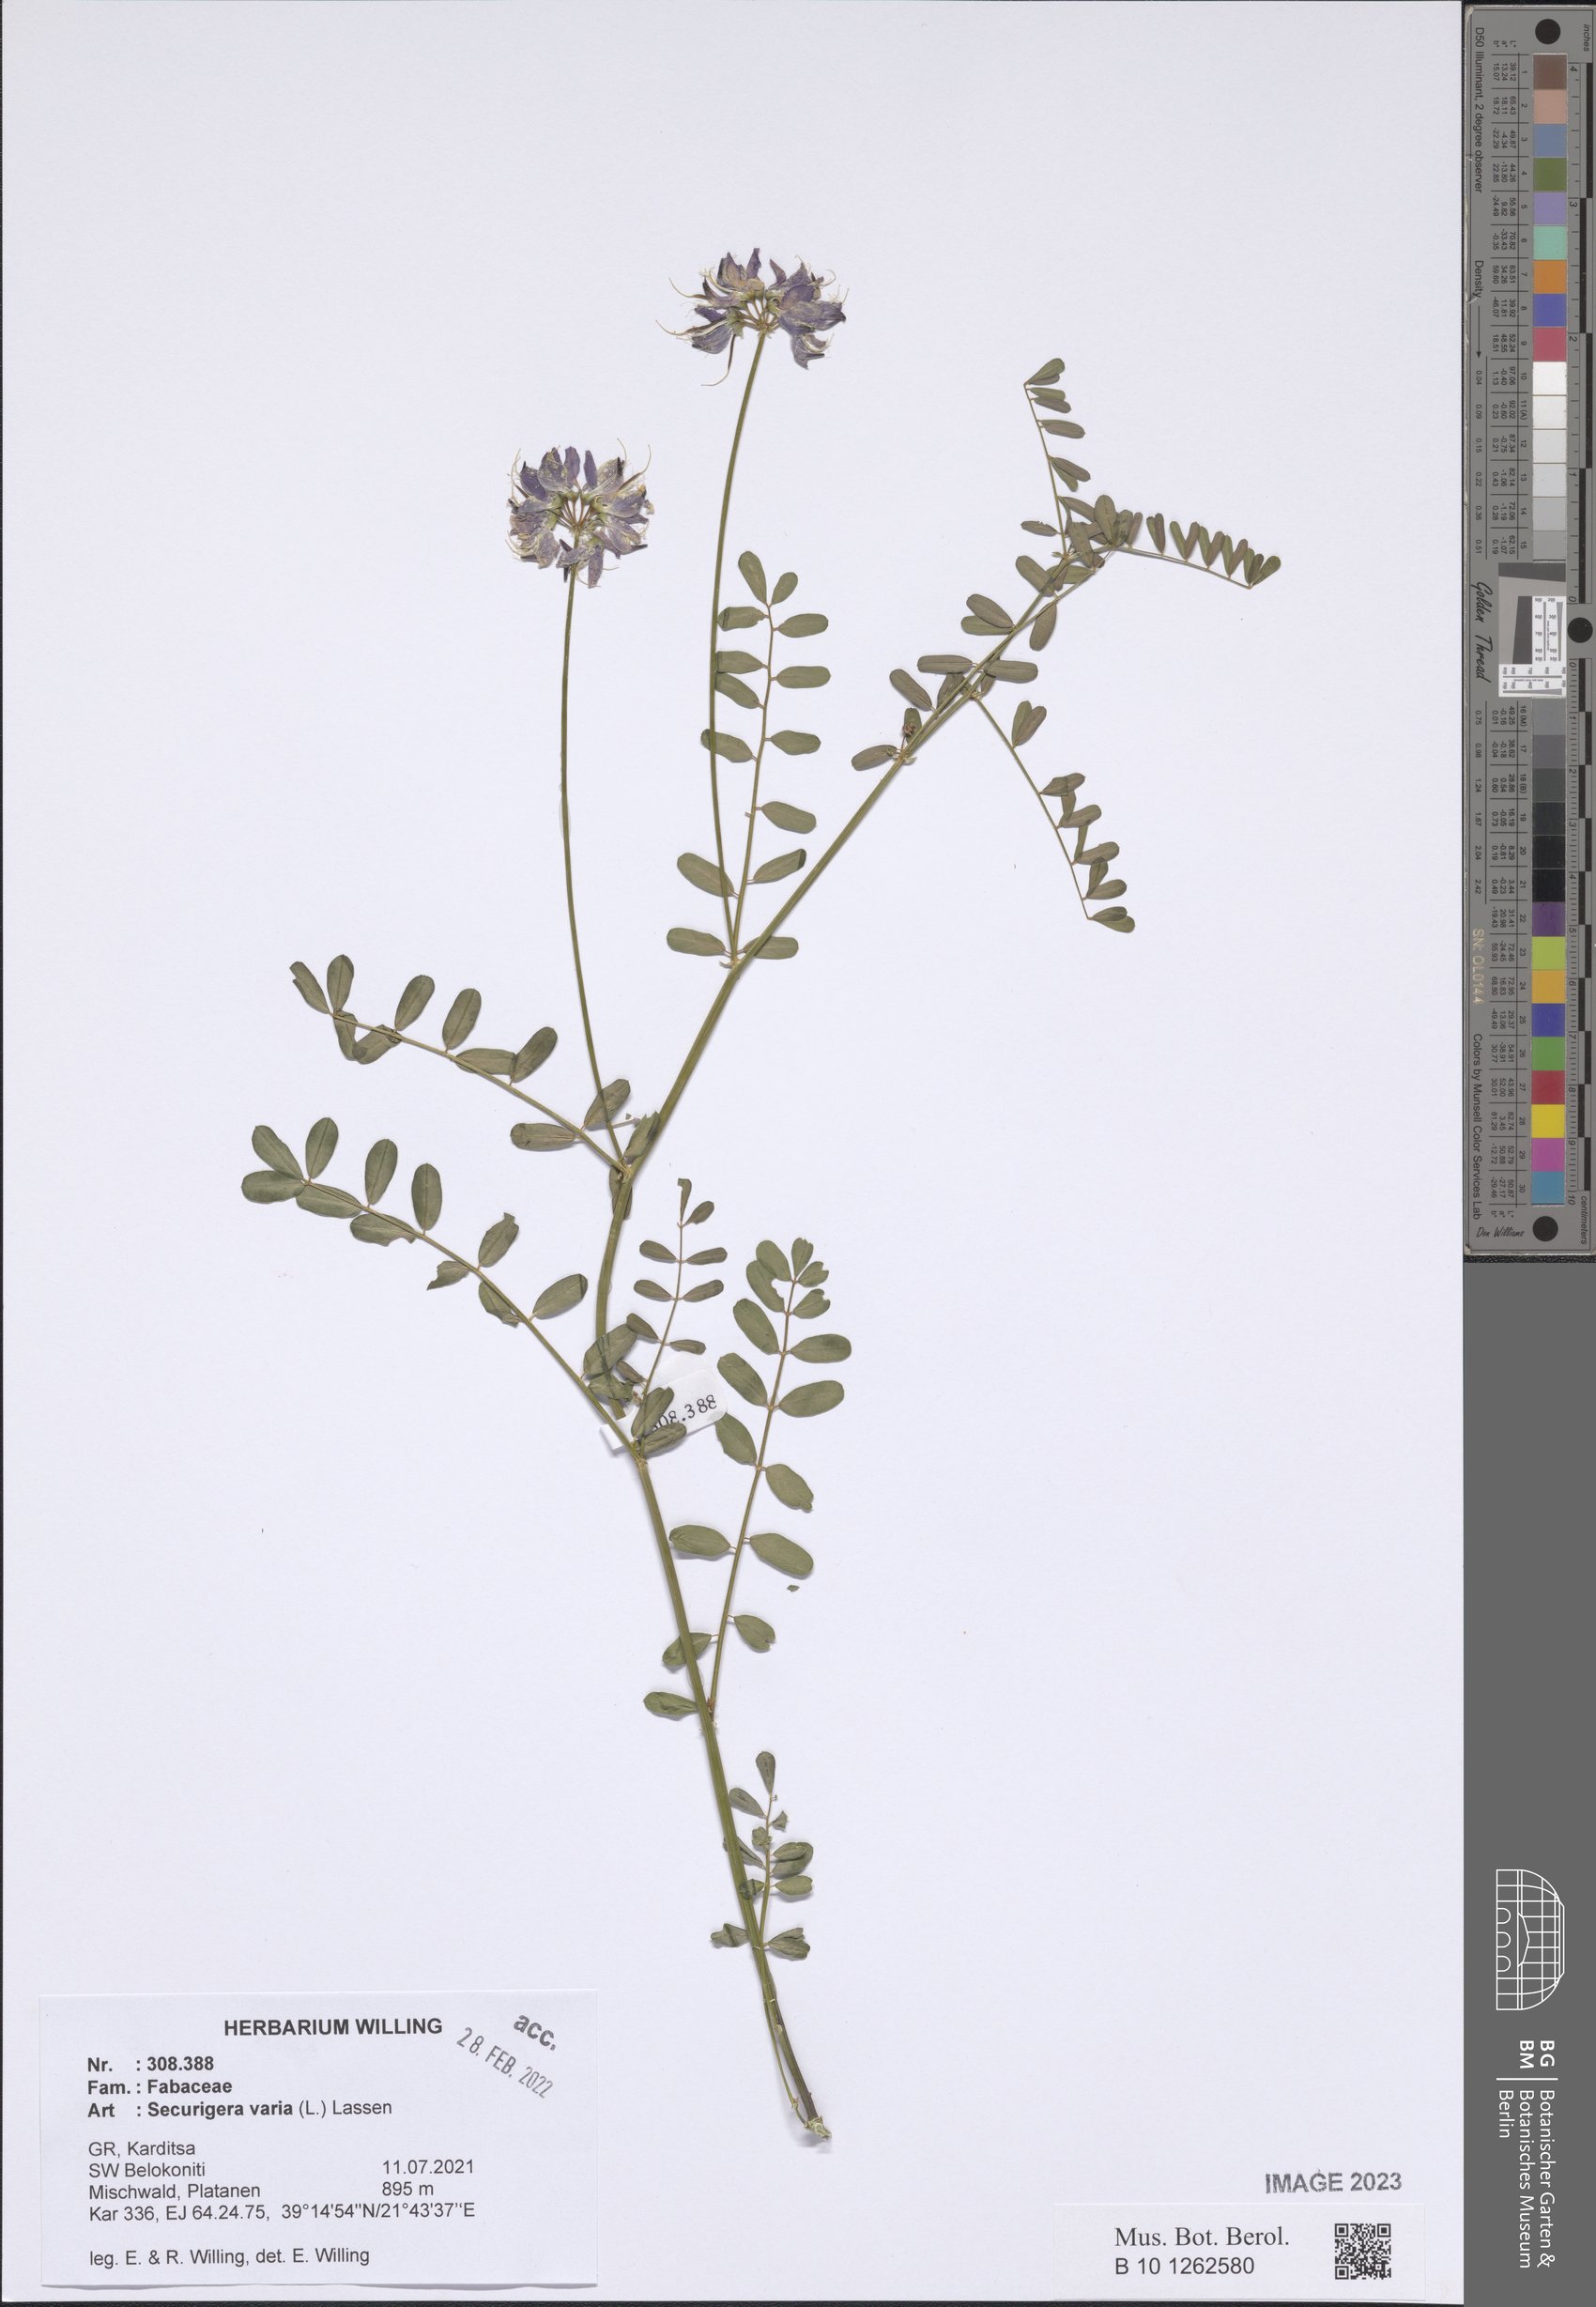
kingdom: Plantae
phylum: Tracheophyta
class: Magnoliopsida
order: Fabales
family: Fabaceae
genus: Coronilla
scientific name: Coronilla varia
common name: Crownvetch
